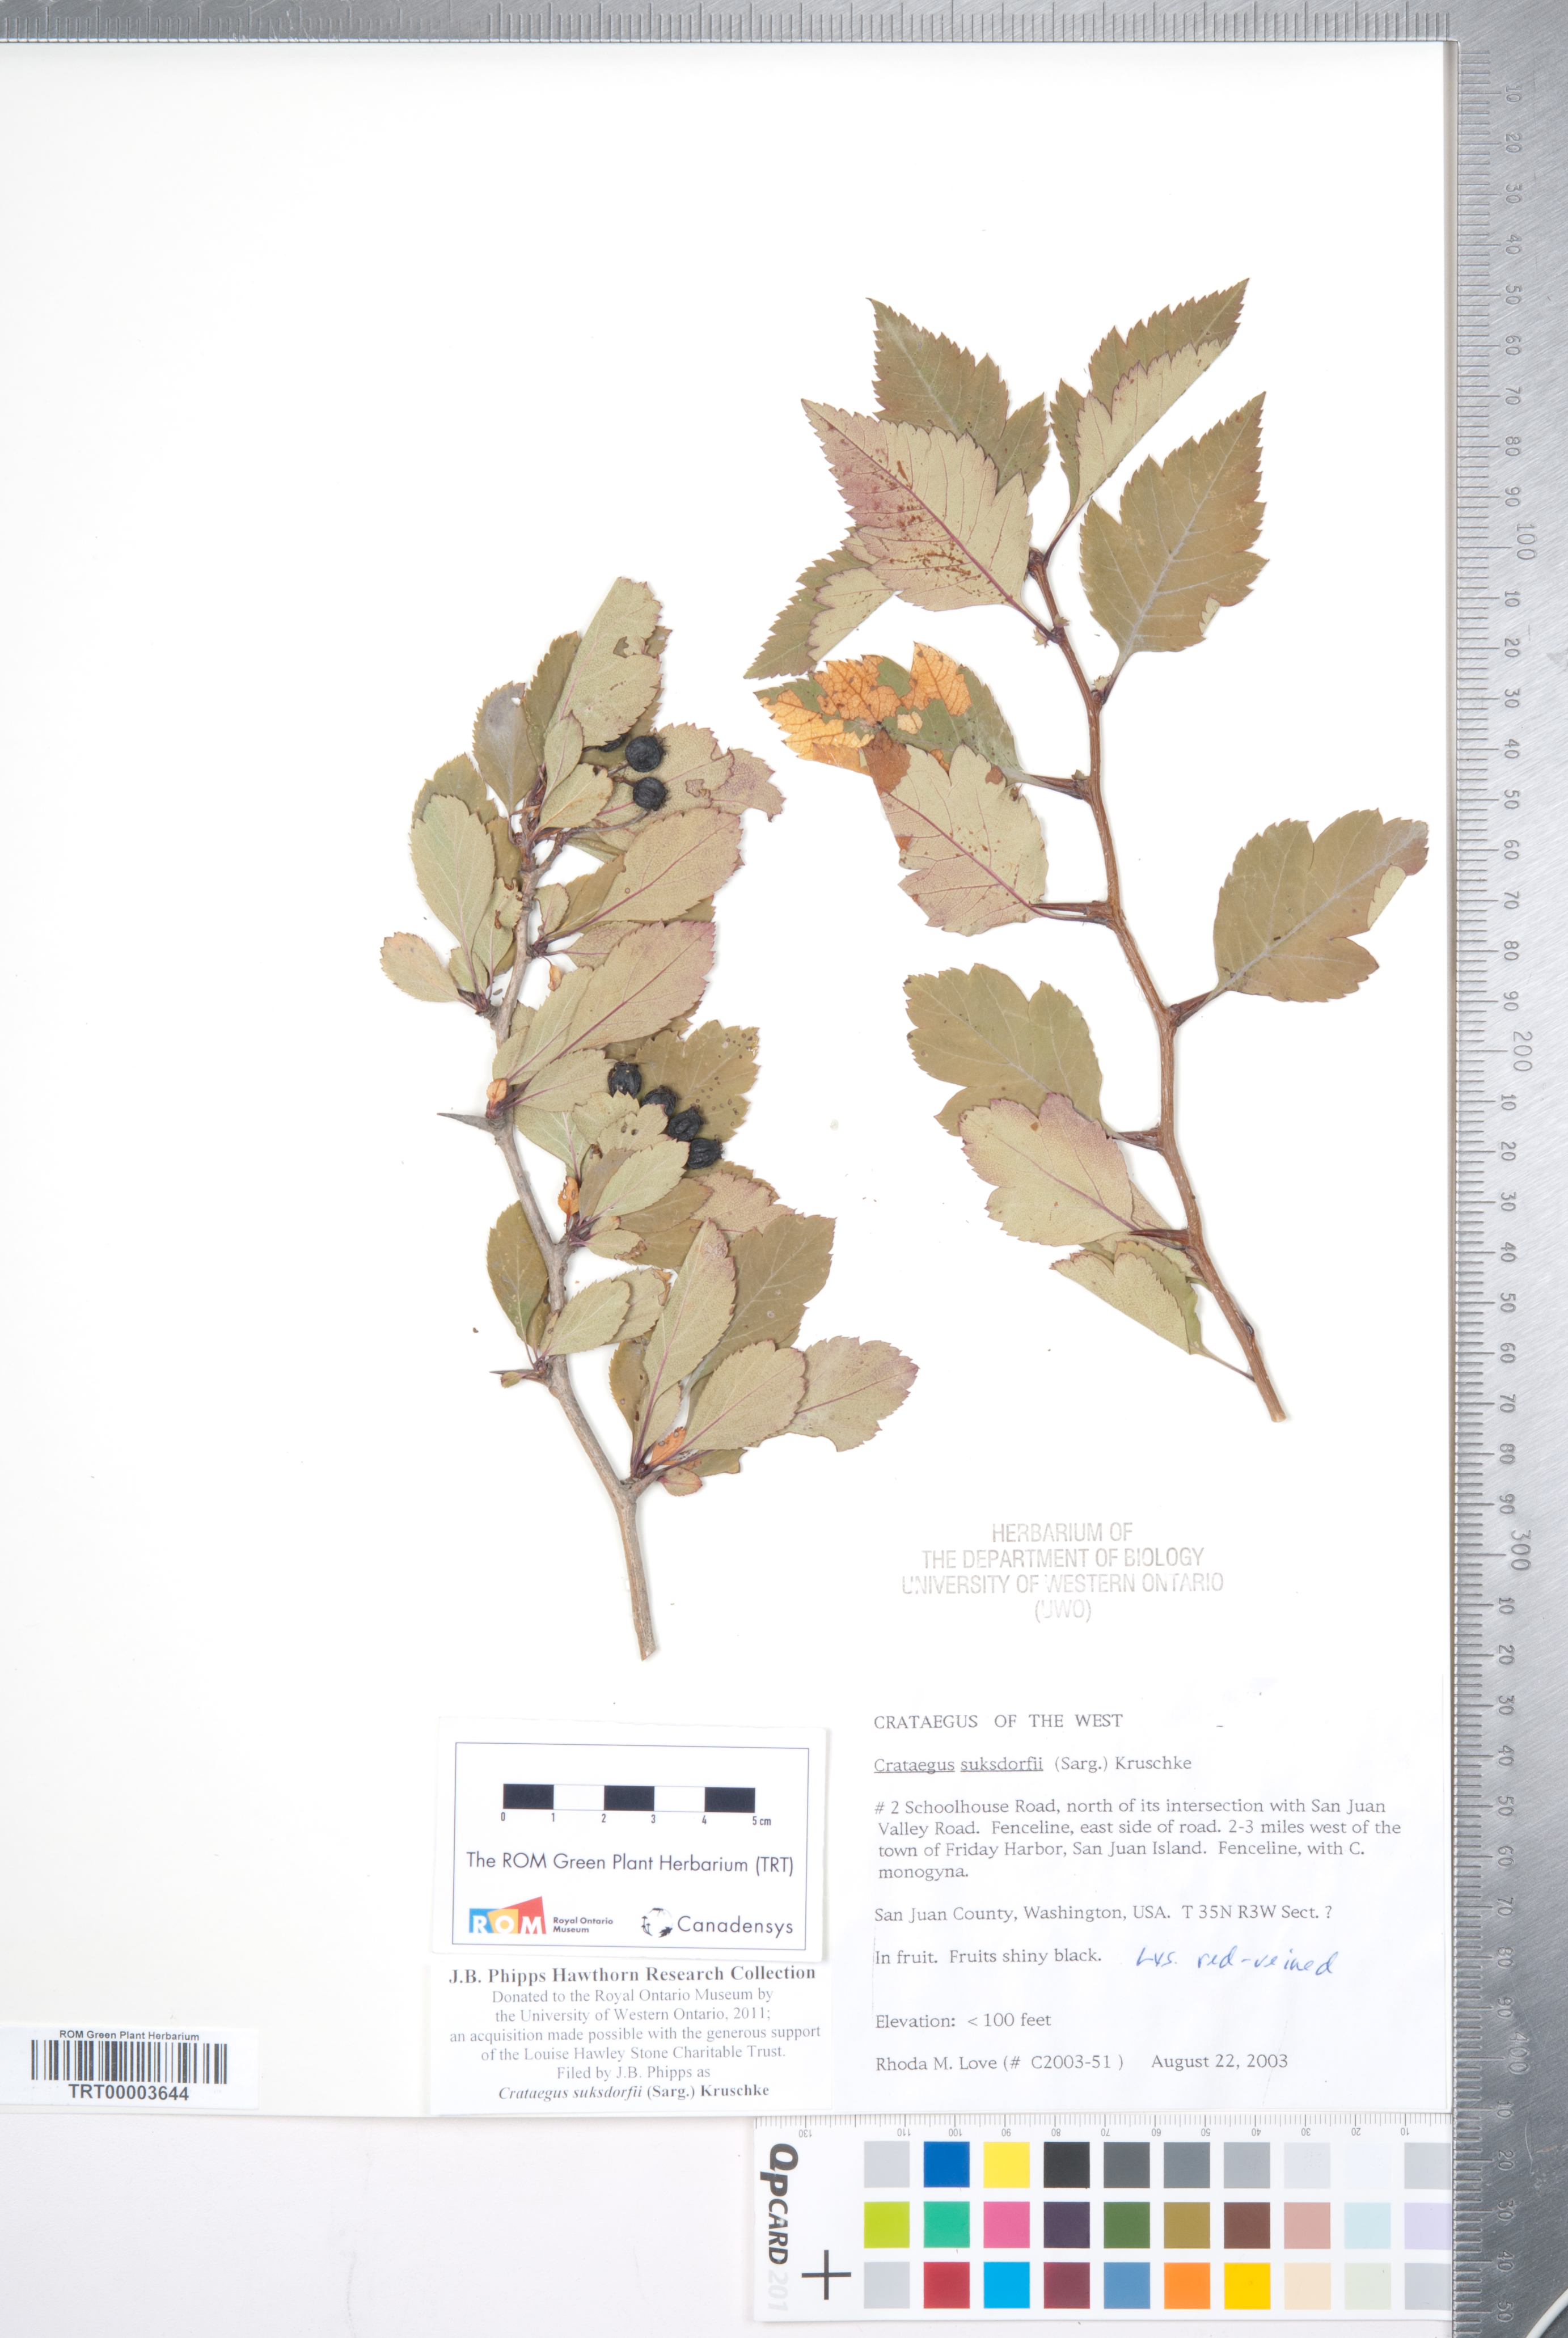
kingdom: Plantae
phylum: Tracheophyta
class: Magnoliopsida
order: Rosales
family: Rosaceae
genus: Crataegus
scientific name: Crataegus gaylussacia
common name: Huckleberry hawthorn
